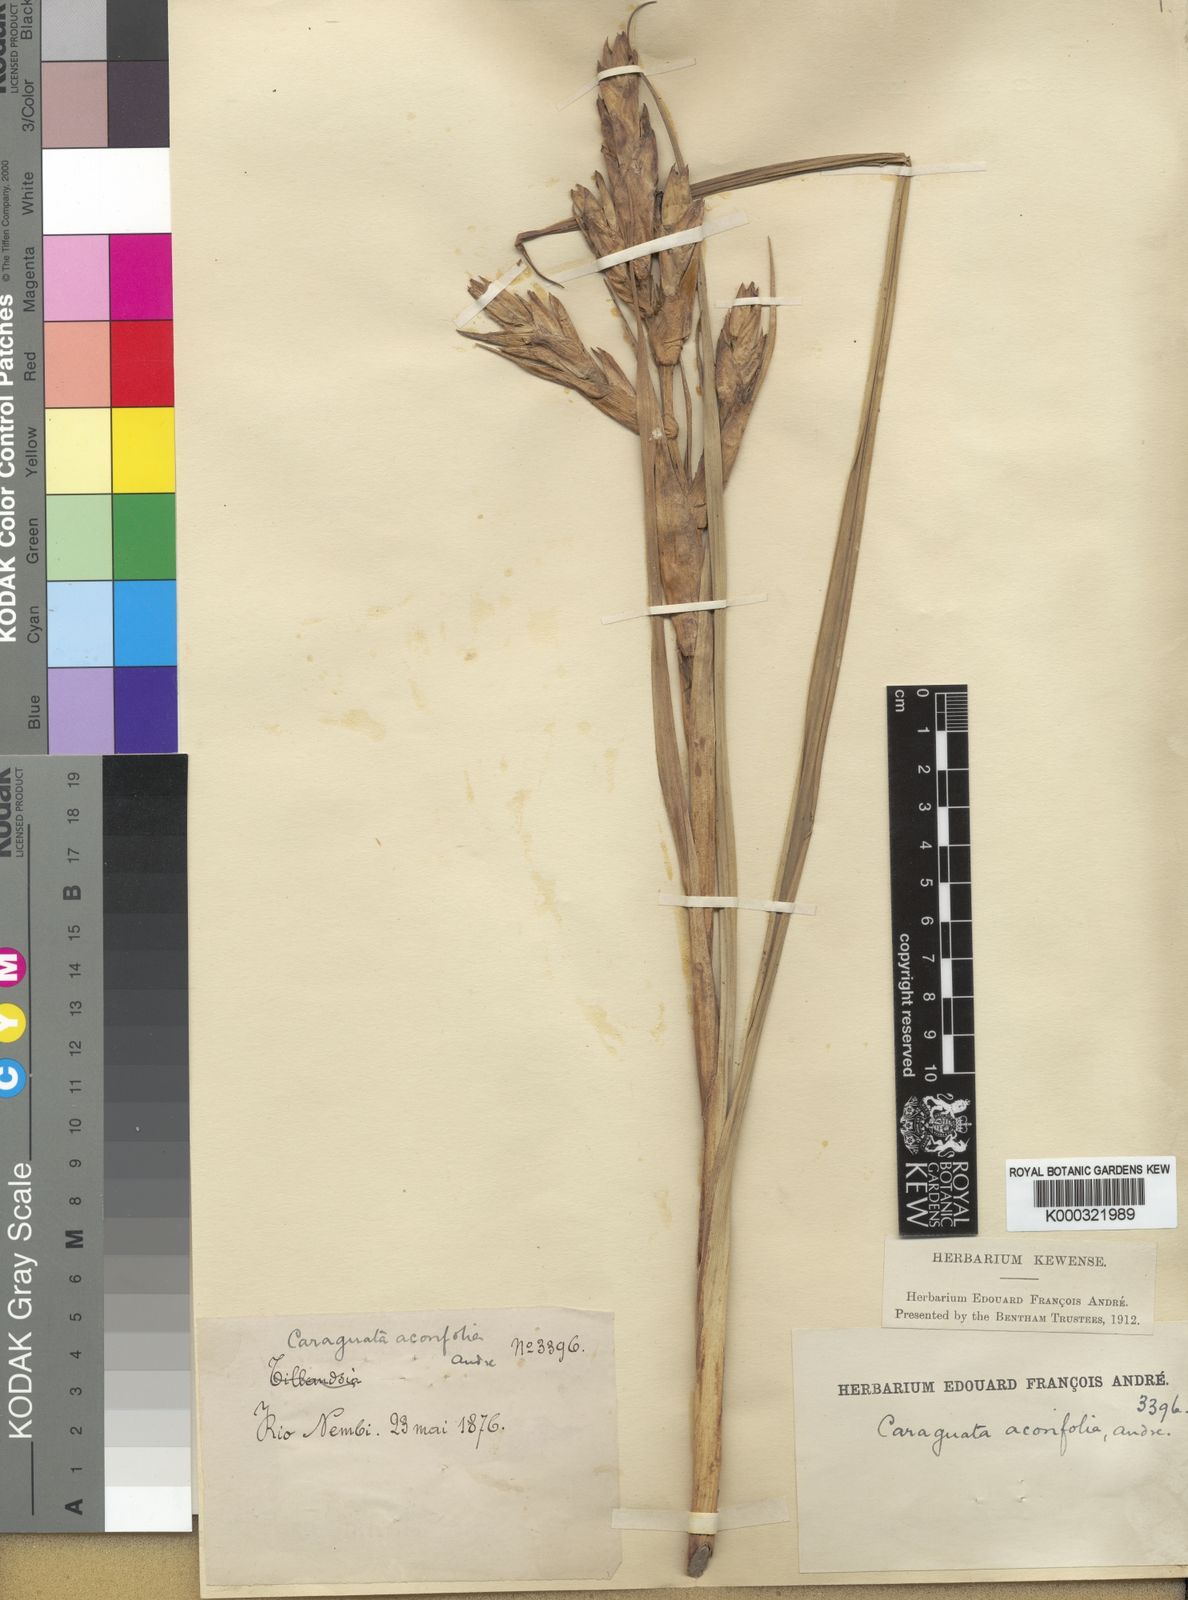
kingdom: Plantae
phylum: Tracheophyta
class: Liliopsida
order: Poales
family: Bromeliaceae
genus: Guzmania
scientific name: Guzmania calamifolia
